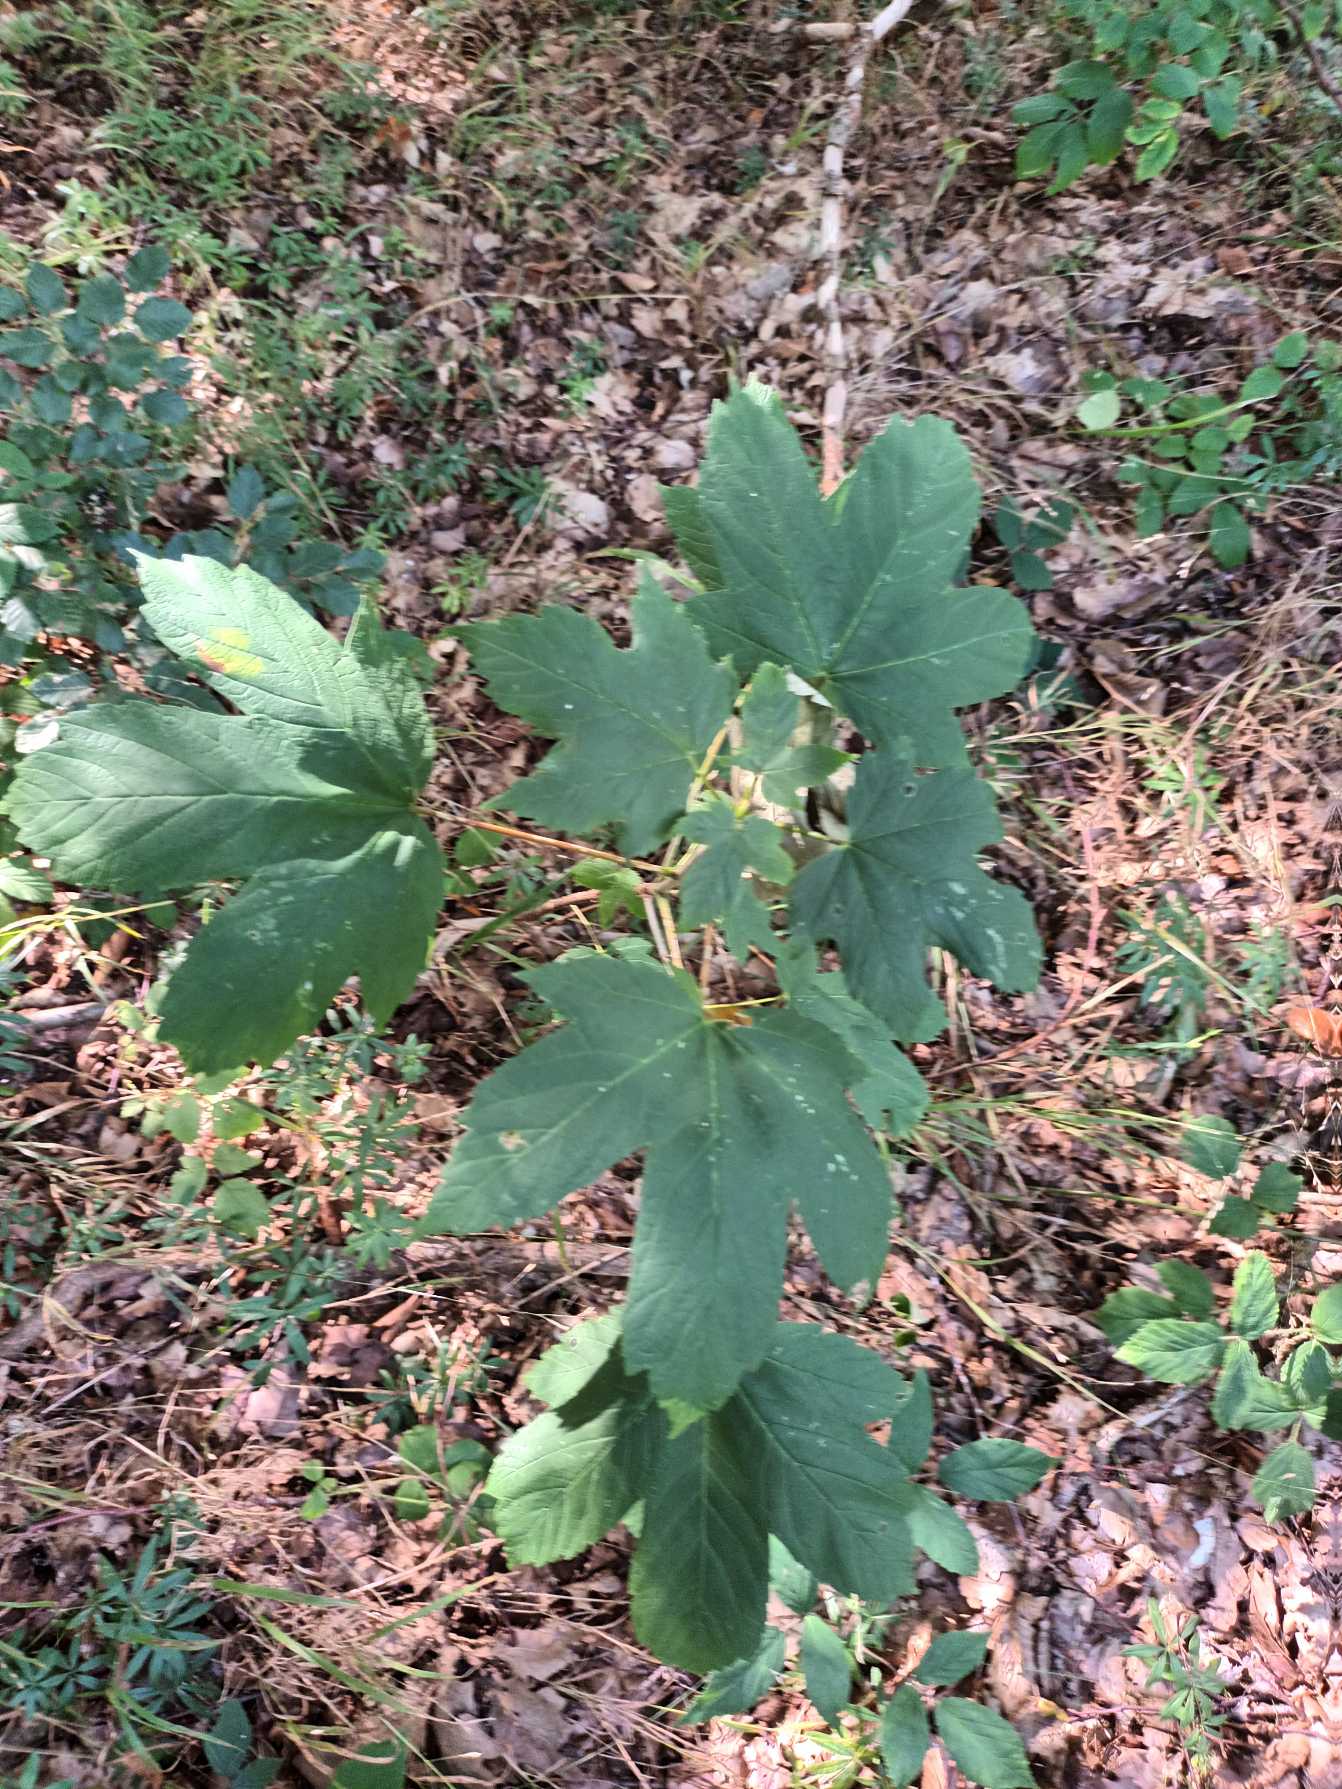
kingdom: Plantae
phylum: Tracheophyta
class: Magnoliopsida
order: Sapindales
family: Sapindaceae
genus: Acer
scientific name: Acer pseudoplatanus
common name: Ahorn
